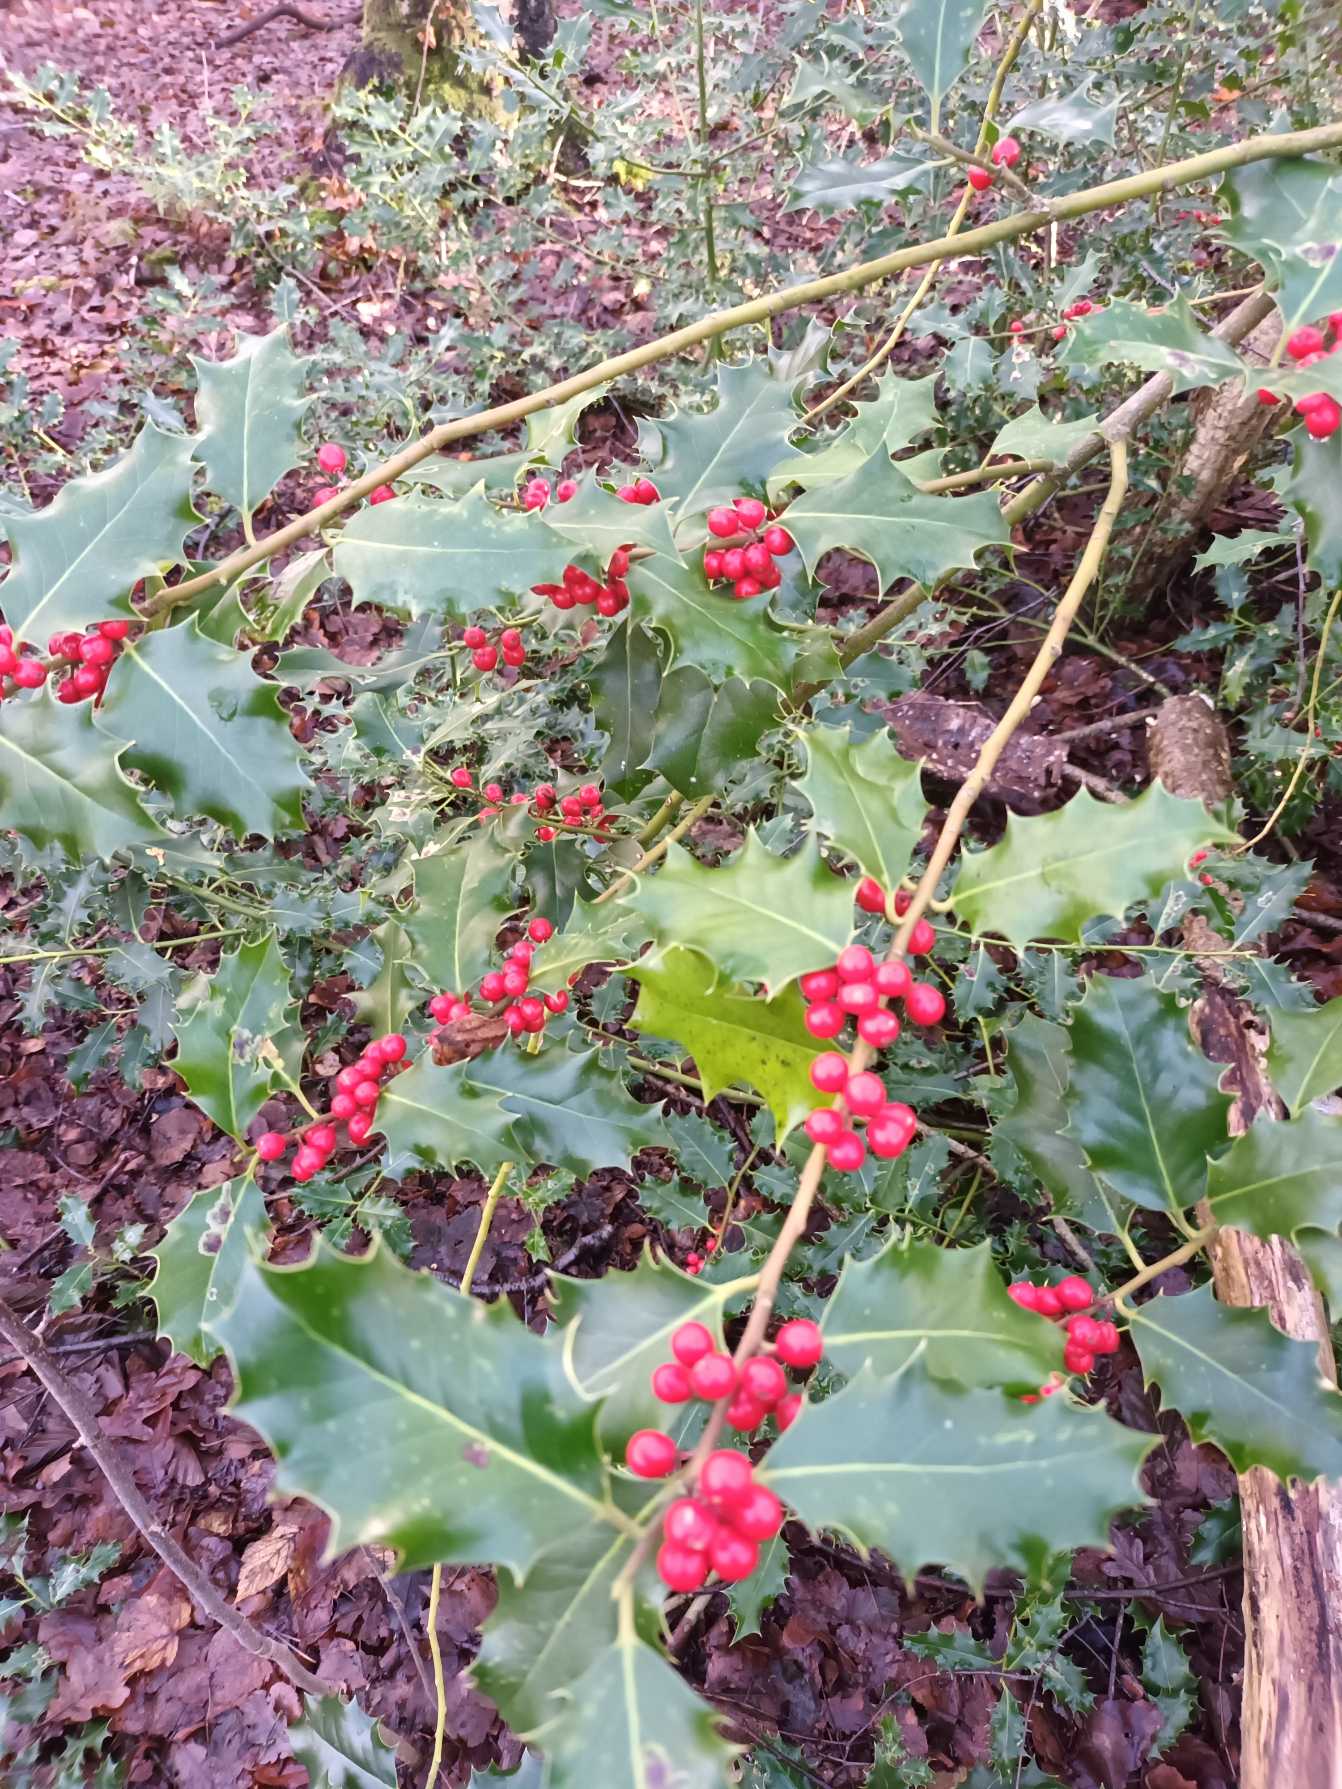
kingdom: Plantae
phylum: Tracheophyta
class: Magnoliopsida
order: Aquifoliales
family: Aquifoliaceae
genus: Ilex
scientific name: Ilex aquifolium
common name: Kristtorn
